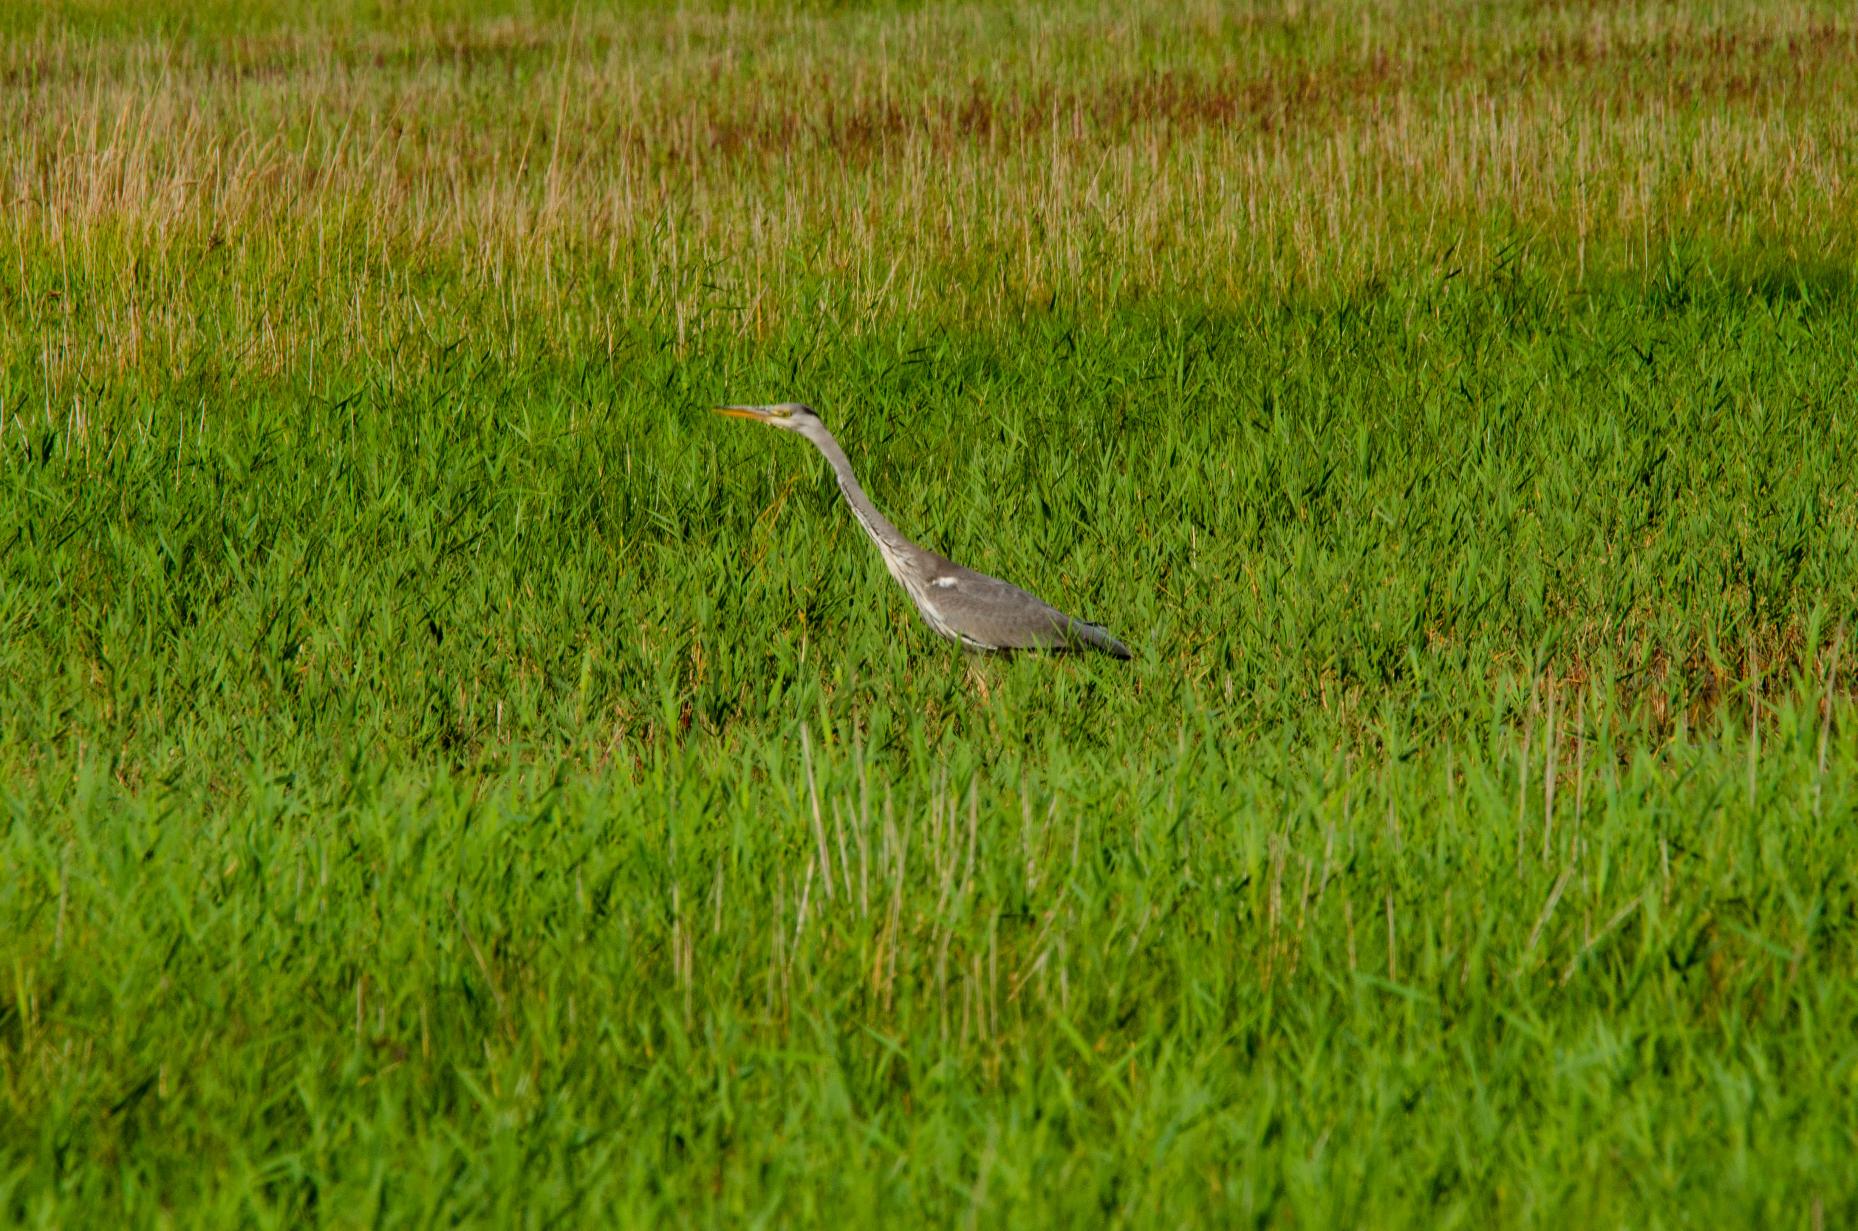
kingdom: Animalia
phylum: Chordata
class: Aves
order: Pelecaniformes
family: Ardeidae
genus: Ardea
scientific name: Ardea cinerea
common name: Fiskehejre
